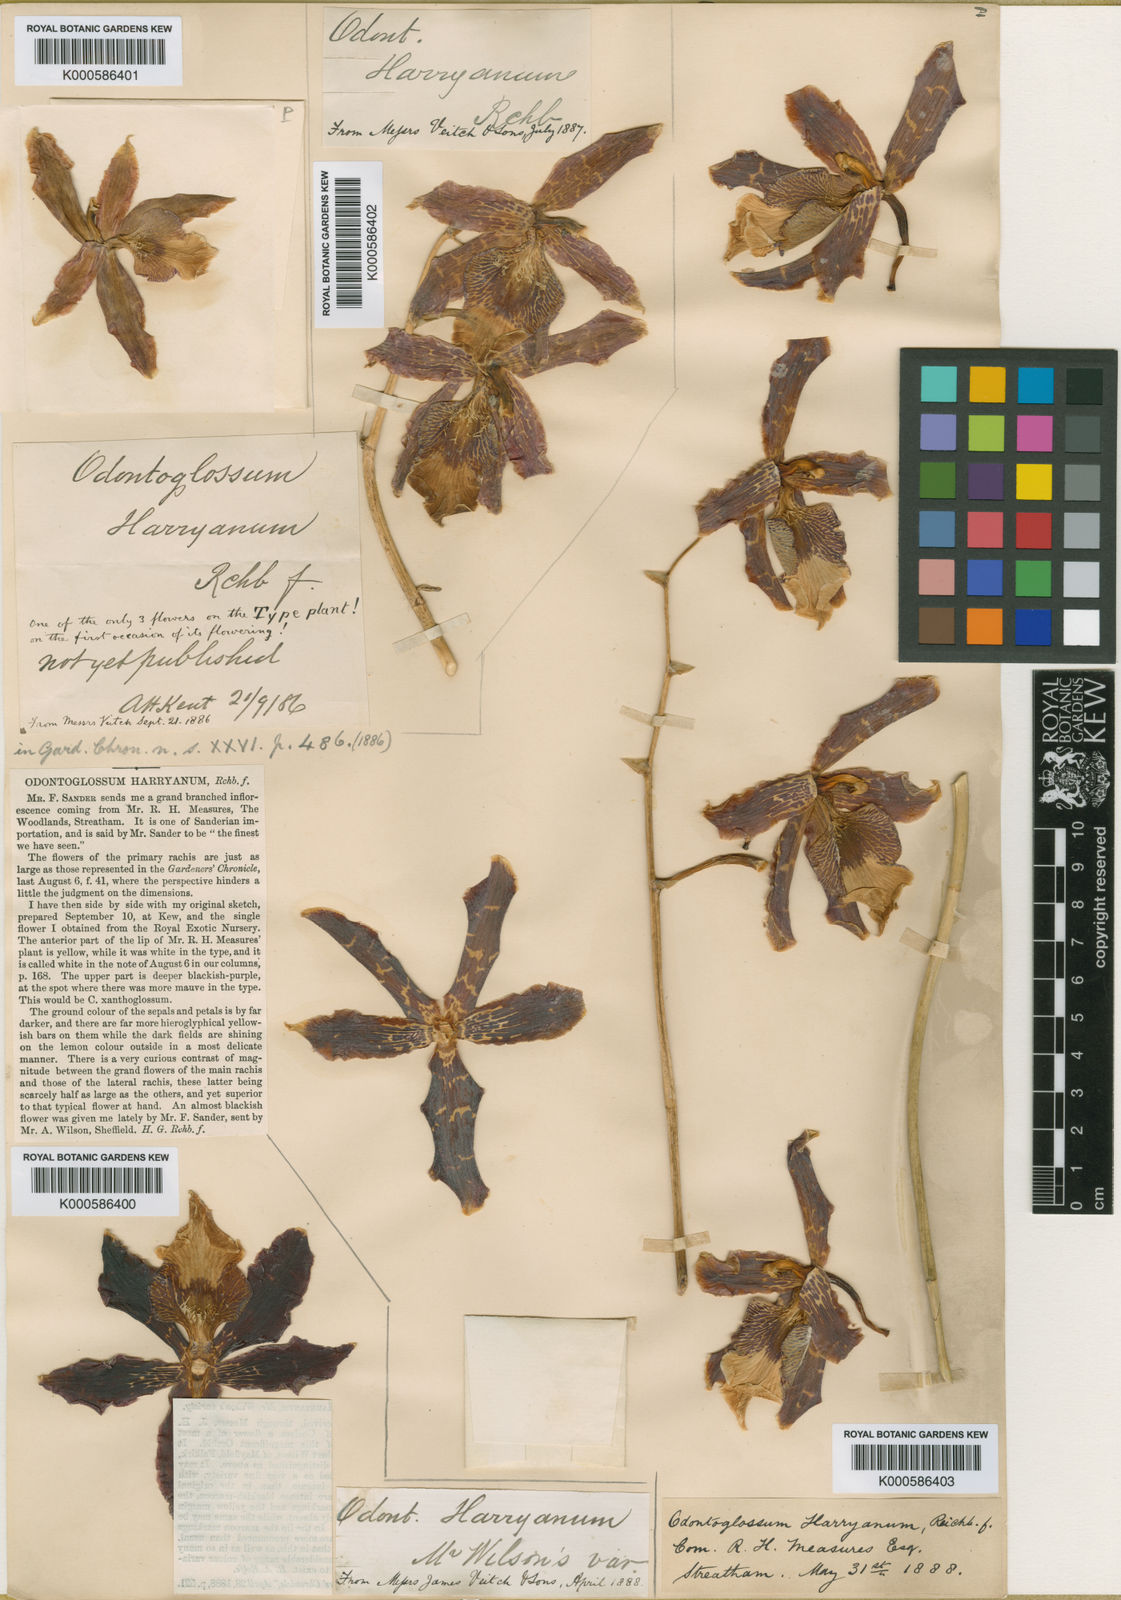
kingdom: Plantae
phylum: Tracheophyta
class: Liliopsida
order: Asparagales
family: Orchidaceae
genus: Oncidium
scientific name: Oncidium harryanum
